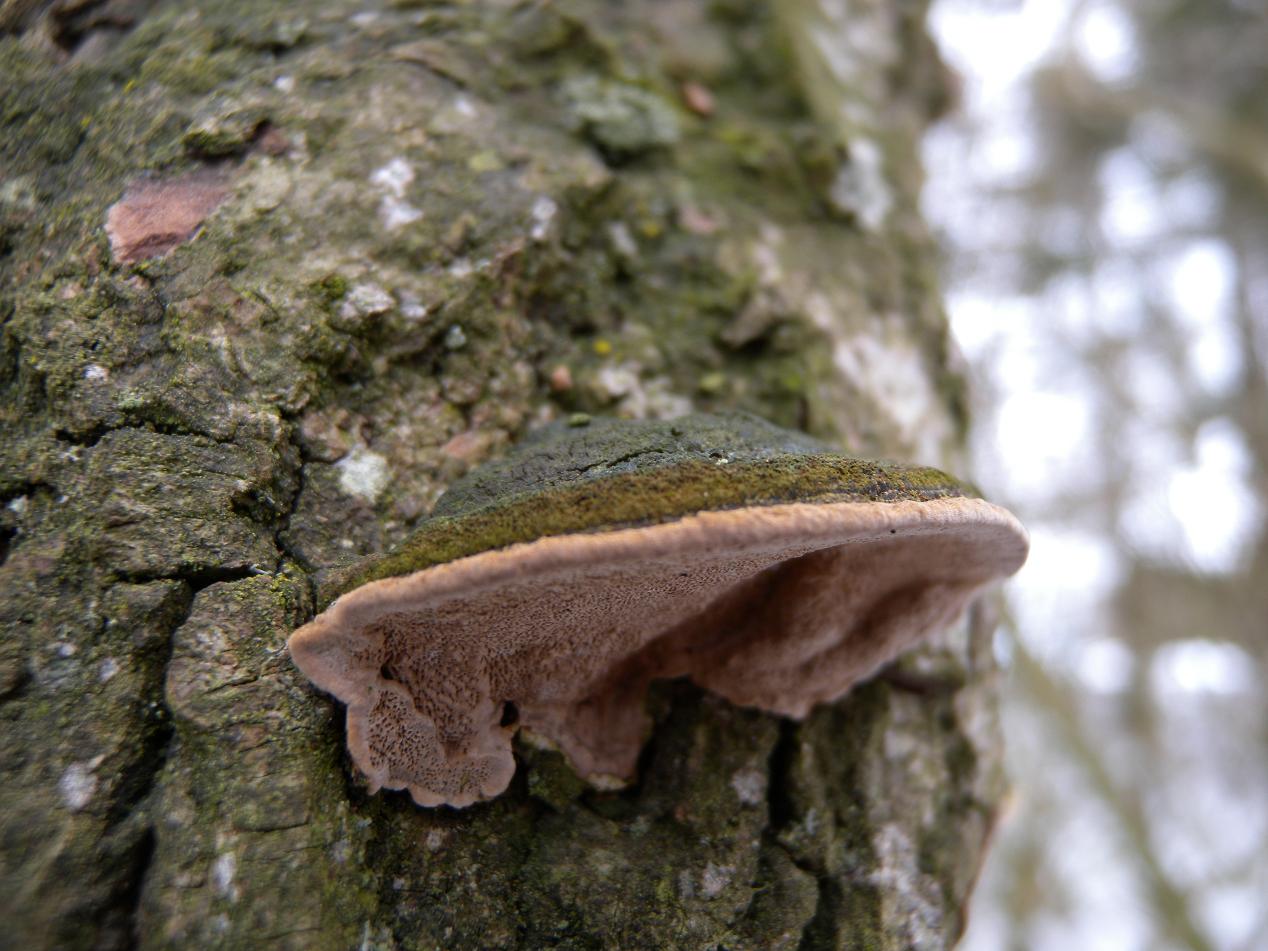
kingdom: Fungi
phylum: Basidiomycota
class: Agaricomycetes
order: Hymenochaetales
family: Hymenochaetaceae
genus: Phellinopsis
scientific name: Phellinopsis conchata
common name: pile-ildporesvamp
